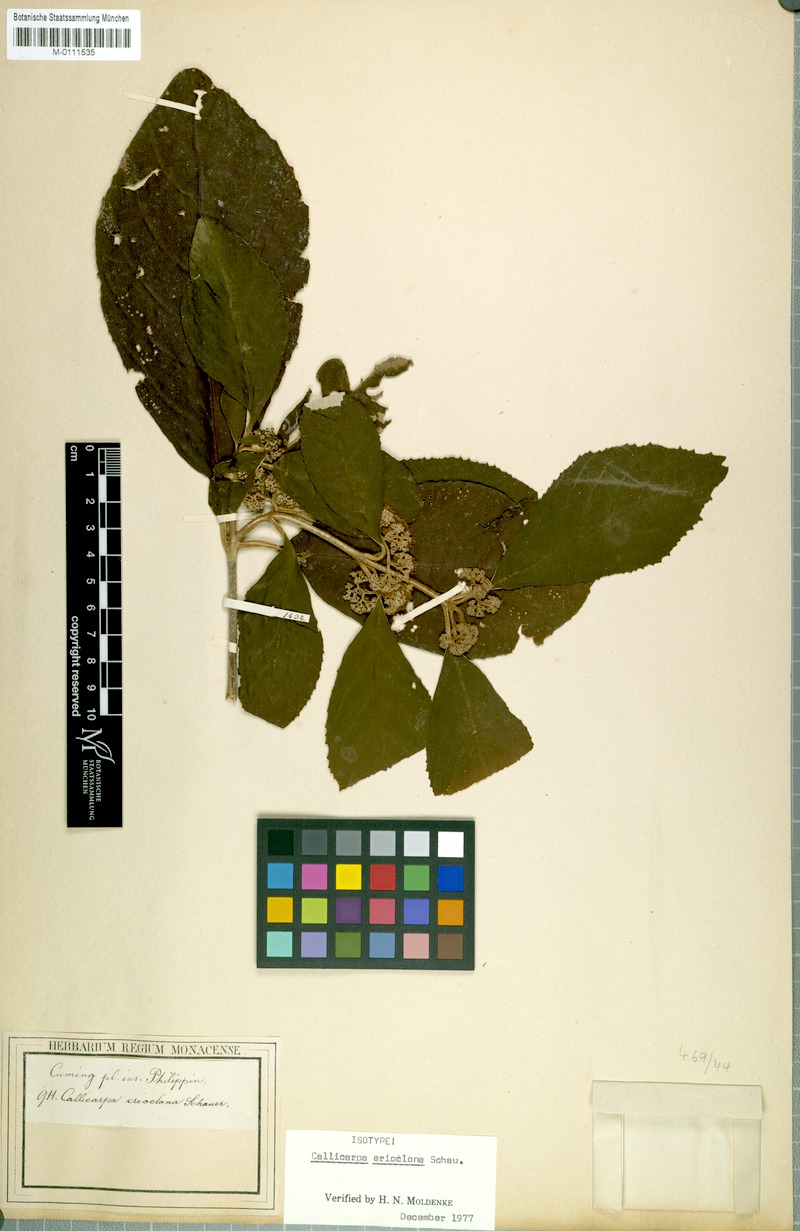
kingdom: Plantae
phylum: Tracheophyta
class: Magnoliopsida
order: Lamiales
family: Lamiaceae
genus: Callicarpa
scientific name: Callicarpa erioclona
